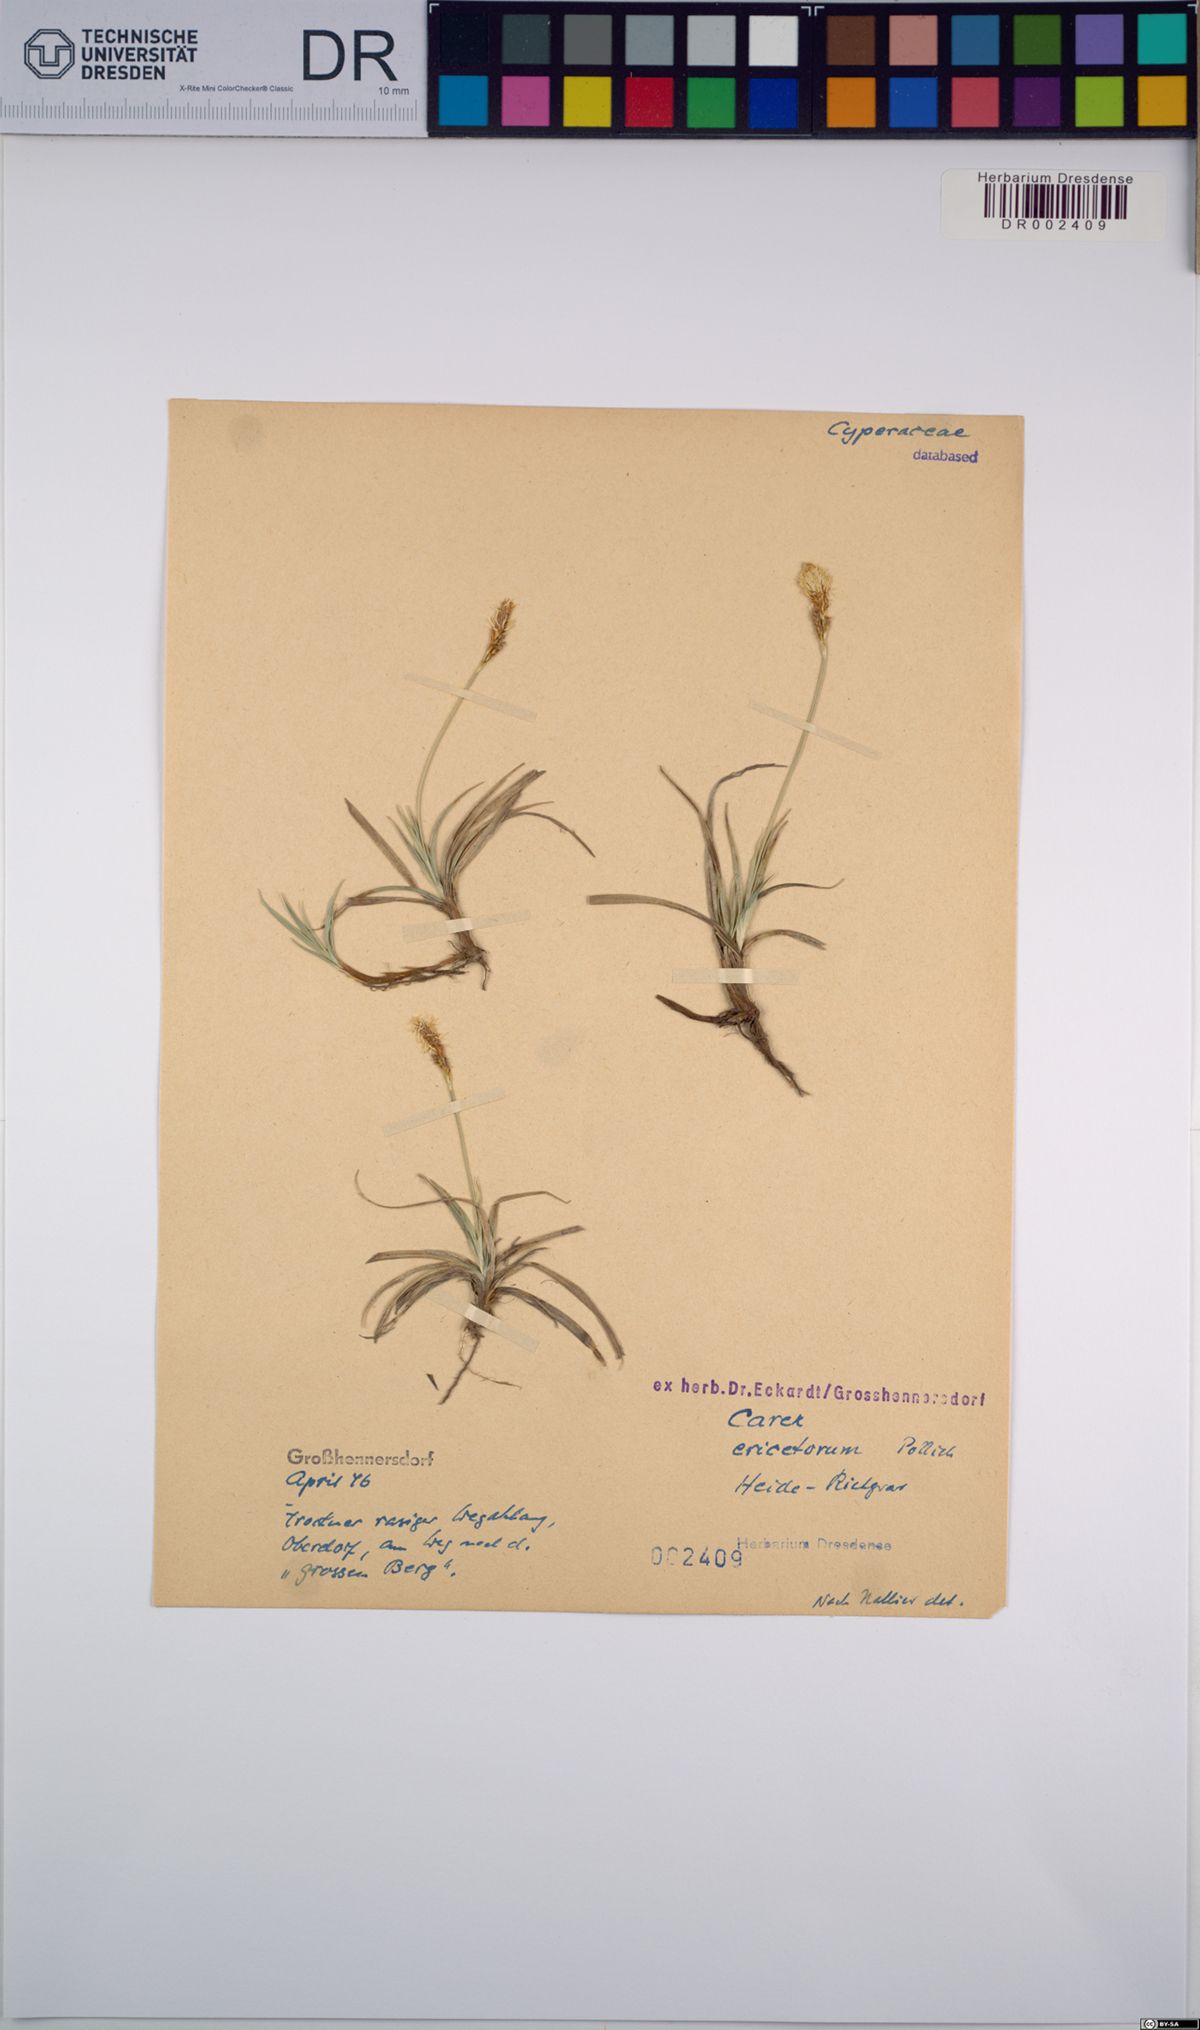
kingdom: Plantae
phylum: Tracheophyta
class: Liliopsida
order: Poales
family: Cyperaceae
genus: Carex
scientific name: Carex ericetorum
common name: Rare spring-sedge
